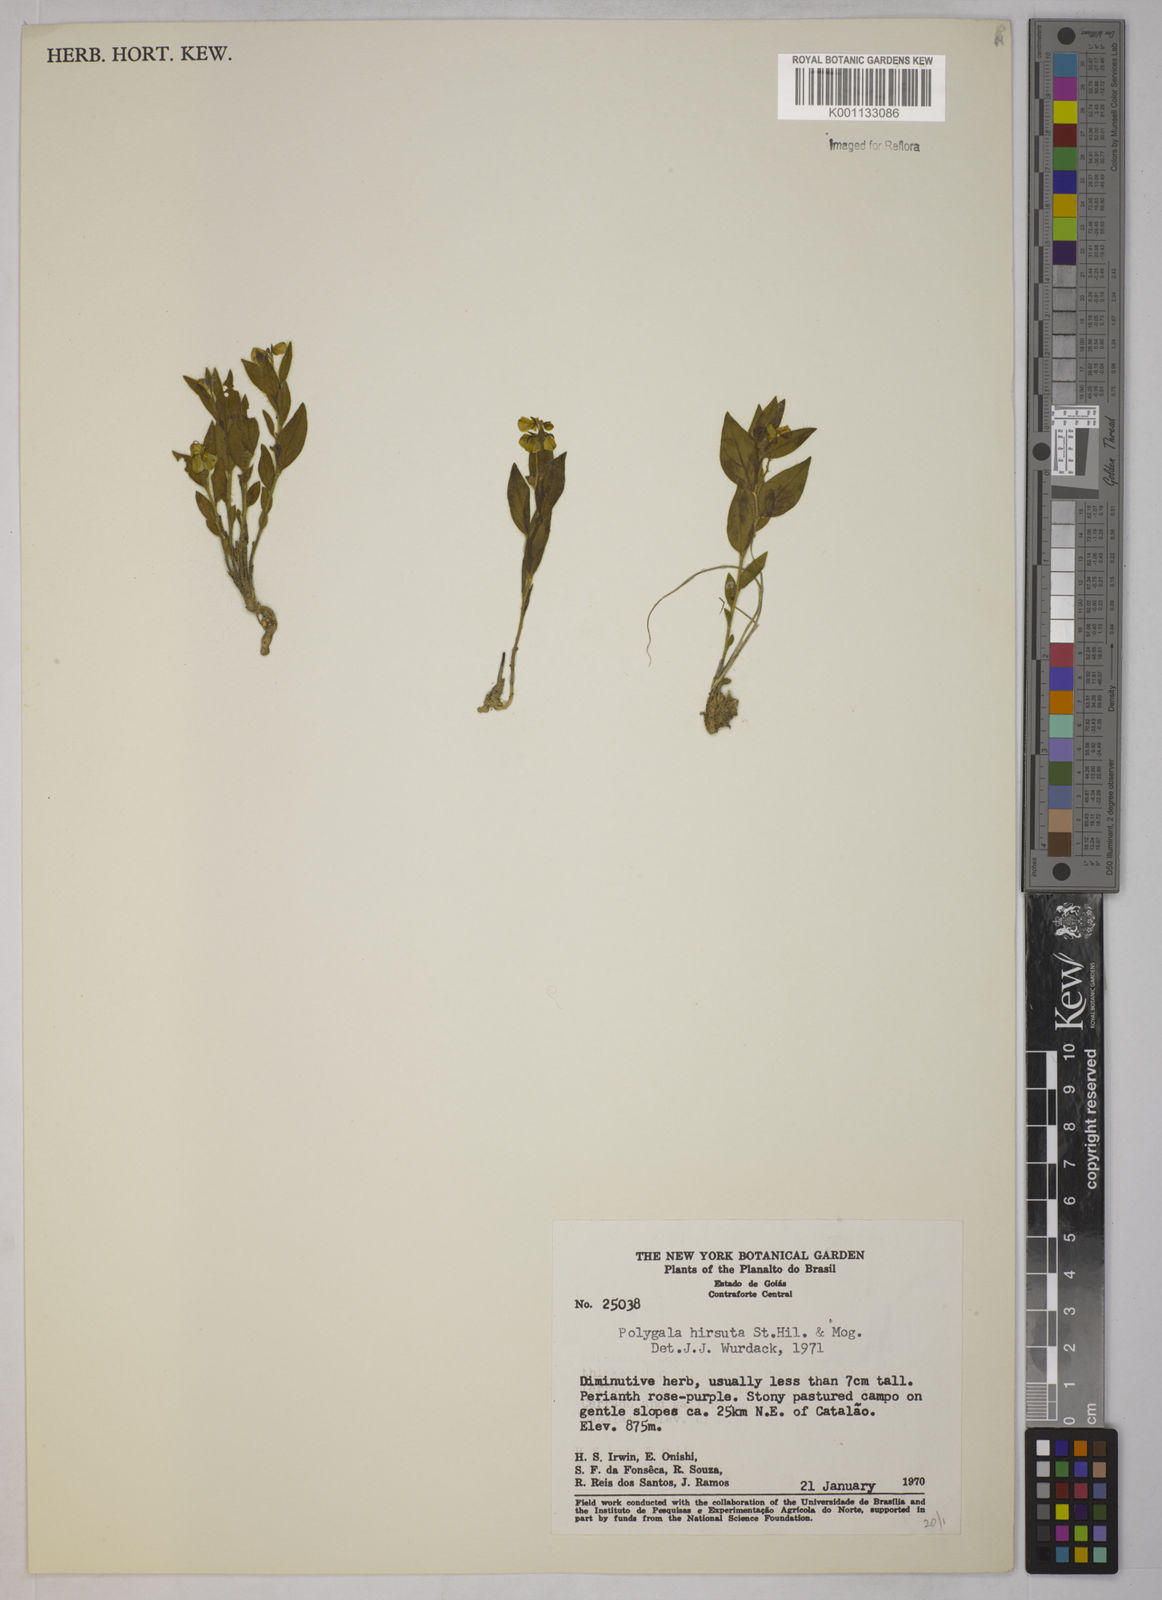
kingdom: Plantae
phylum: Tracheophyta
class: Magnoliopsida
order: Fabales
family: Polygalaceae
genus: Asemeia
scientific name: Asemeia hirsuta
